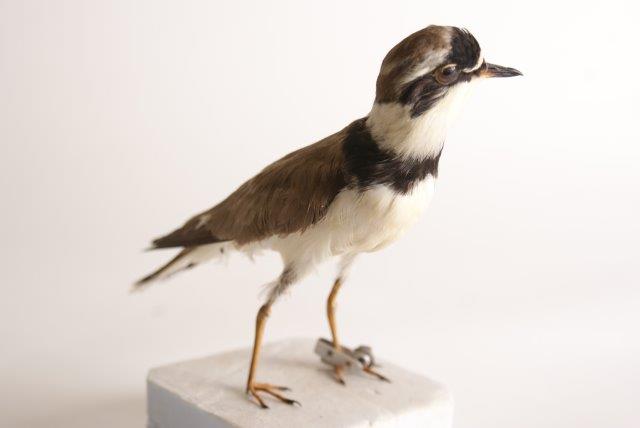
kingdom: Animalia
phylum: Chordata
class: Aves
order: Charadriiformes
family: Charadriidae
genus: Charadrius
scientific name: Charadrius dubius
